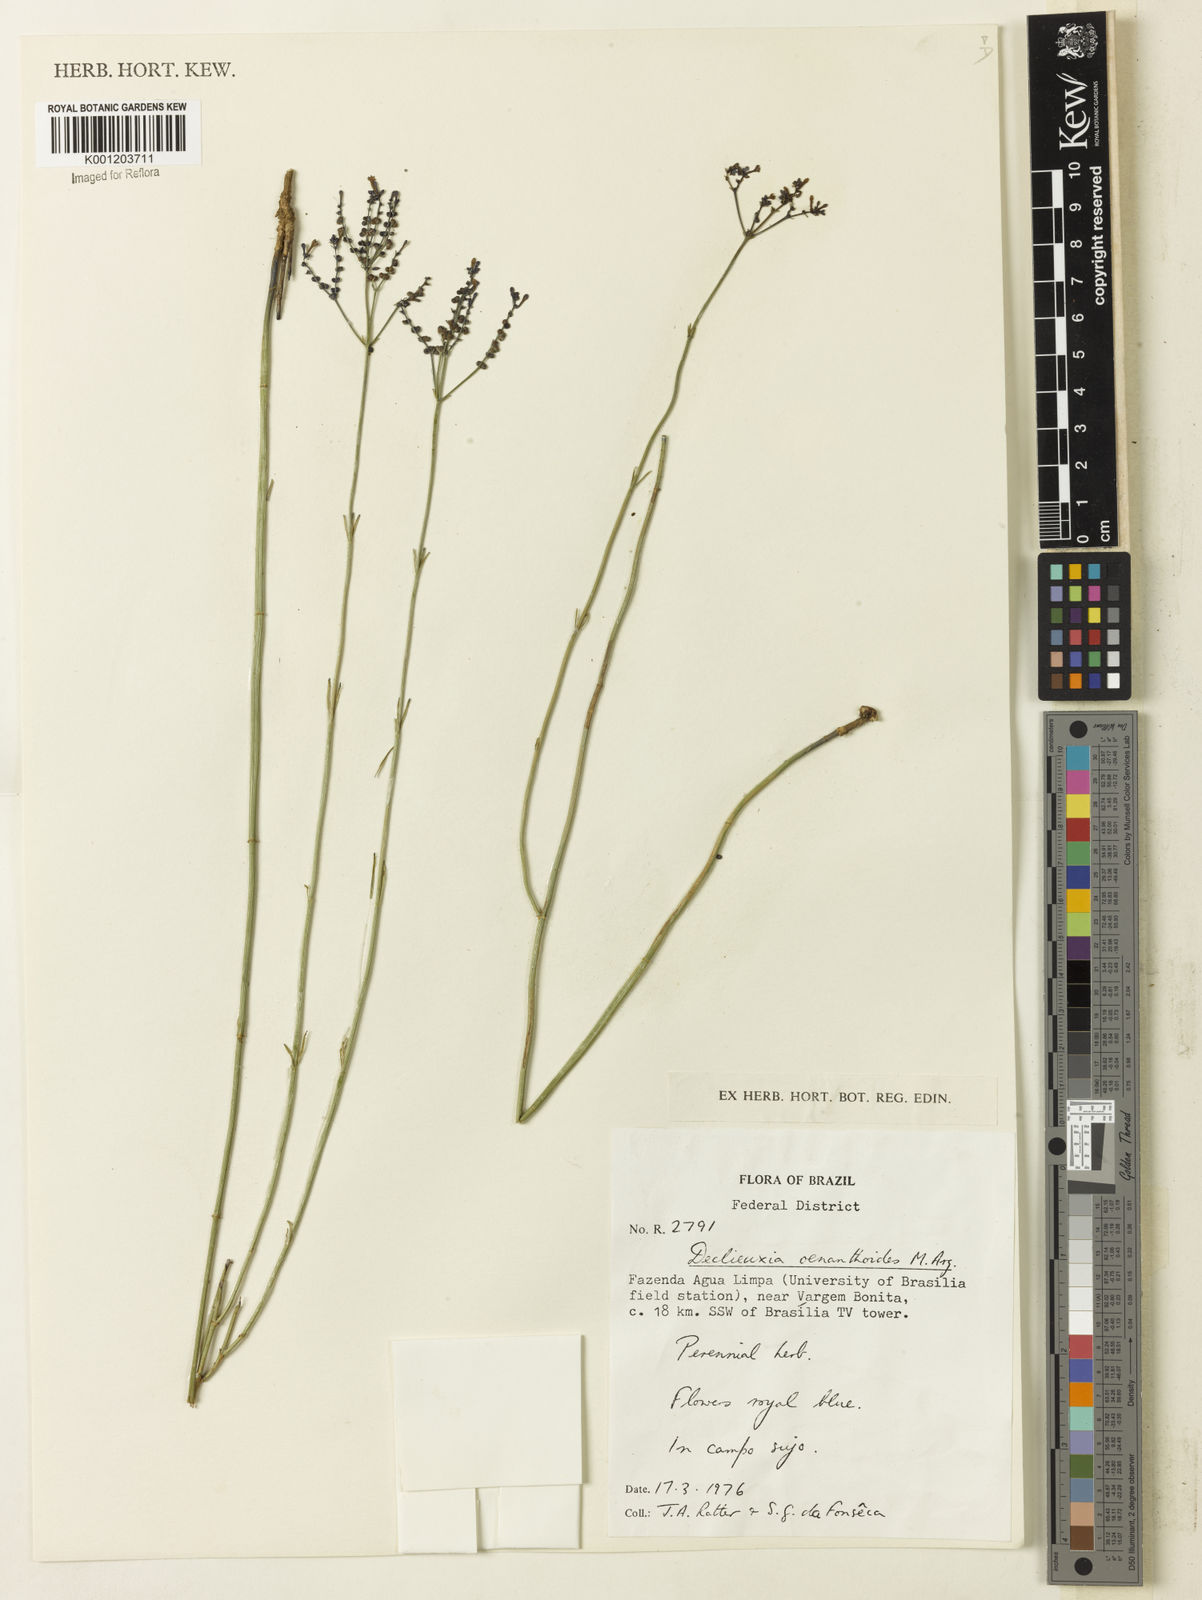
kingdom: Plantae
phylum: Tracheophyta
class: Magnoliopsida
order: Gentianales
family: Rubiaceae
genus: Declieuxia
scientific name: Declieuxia
